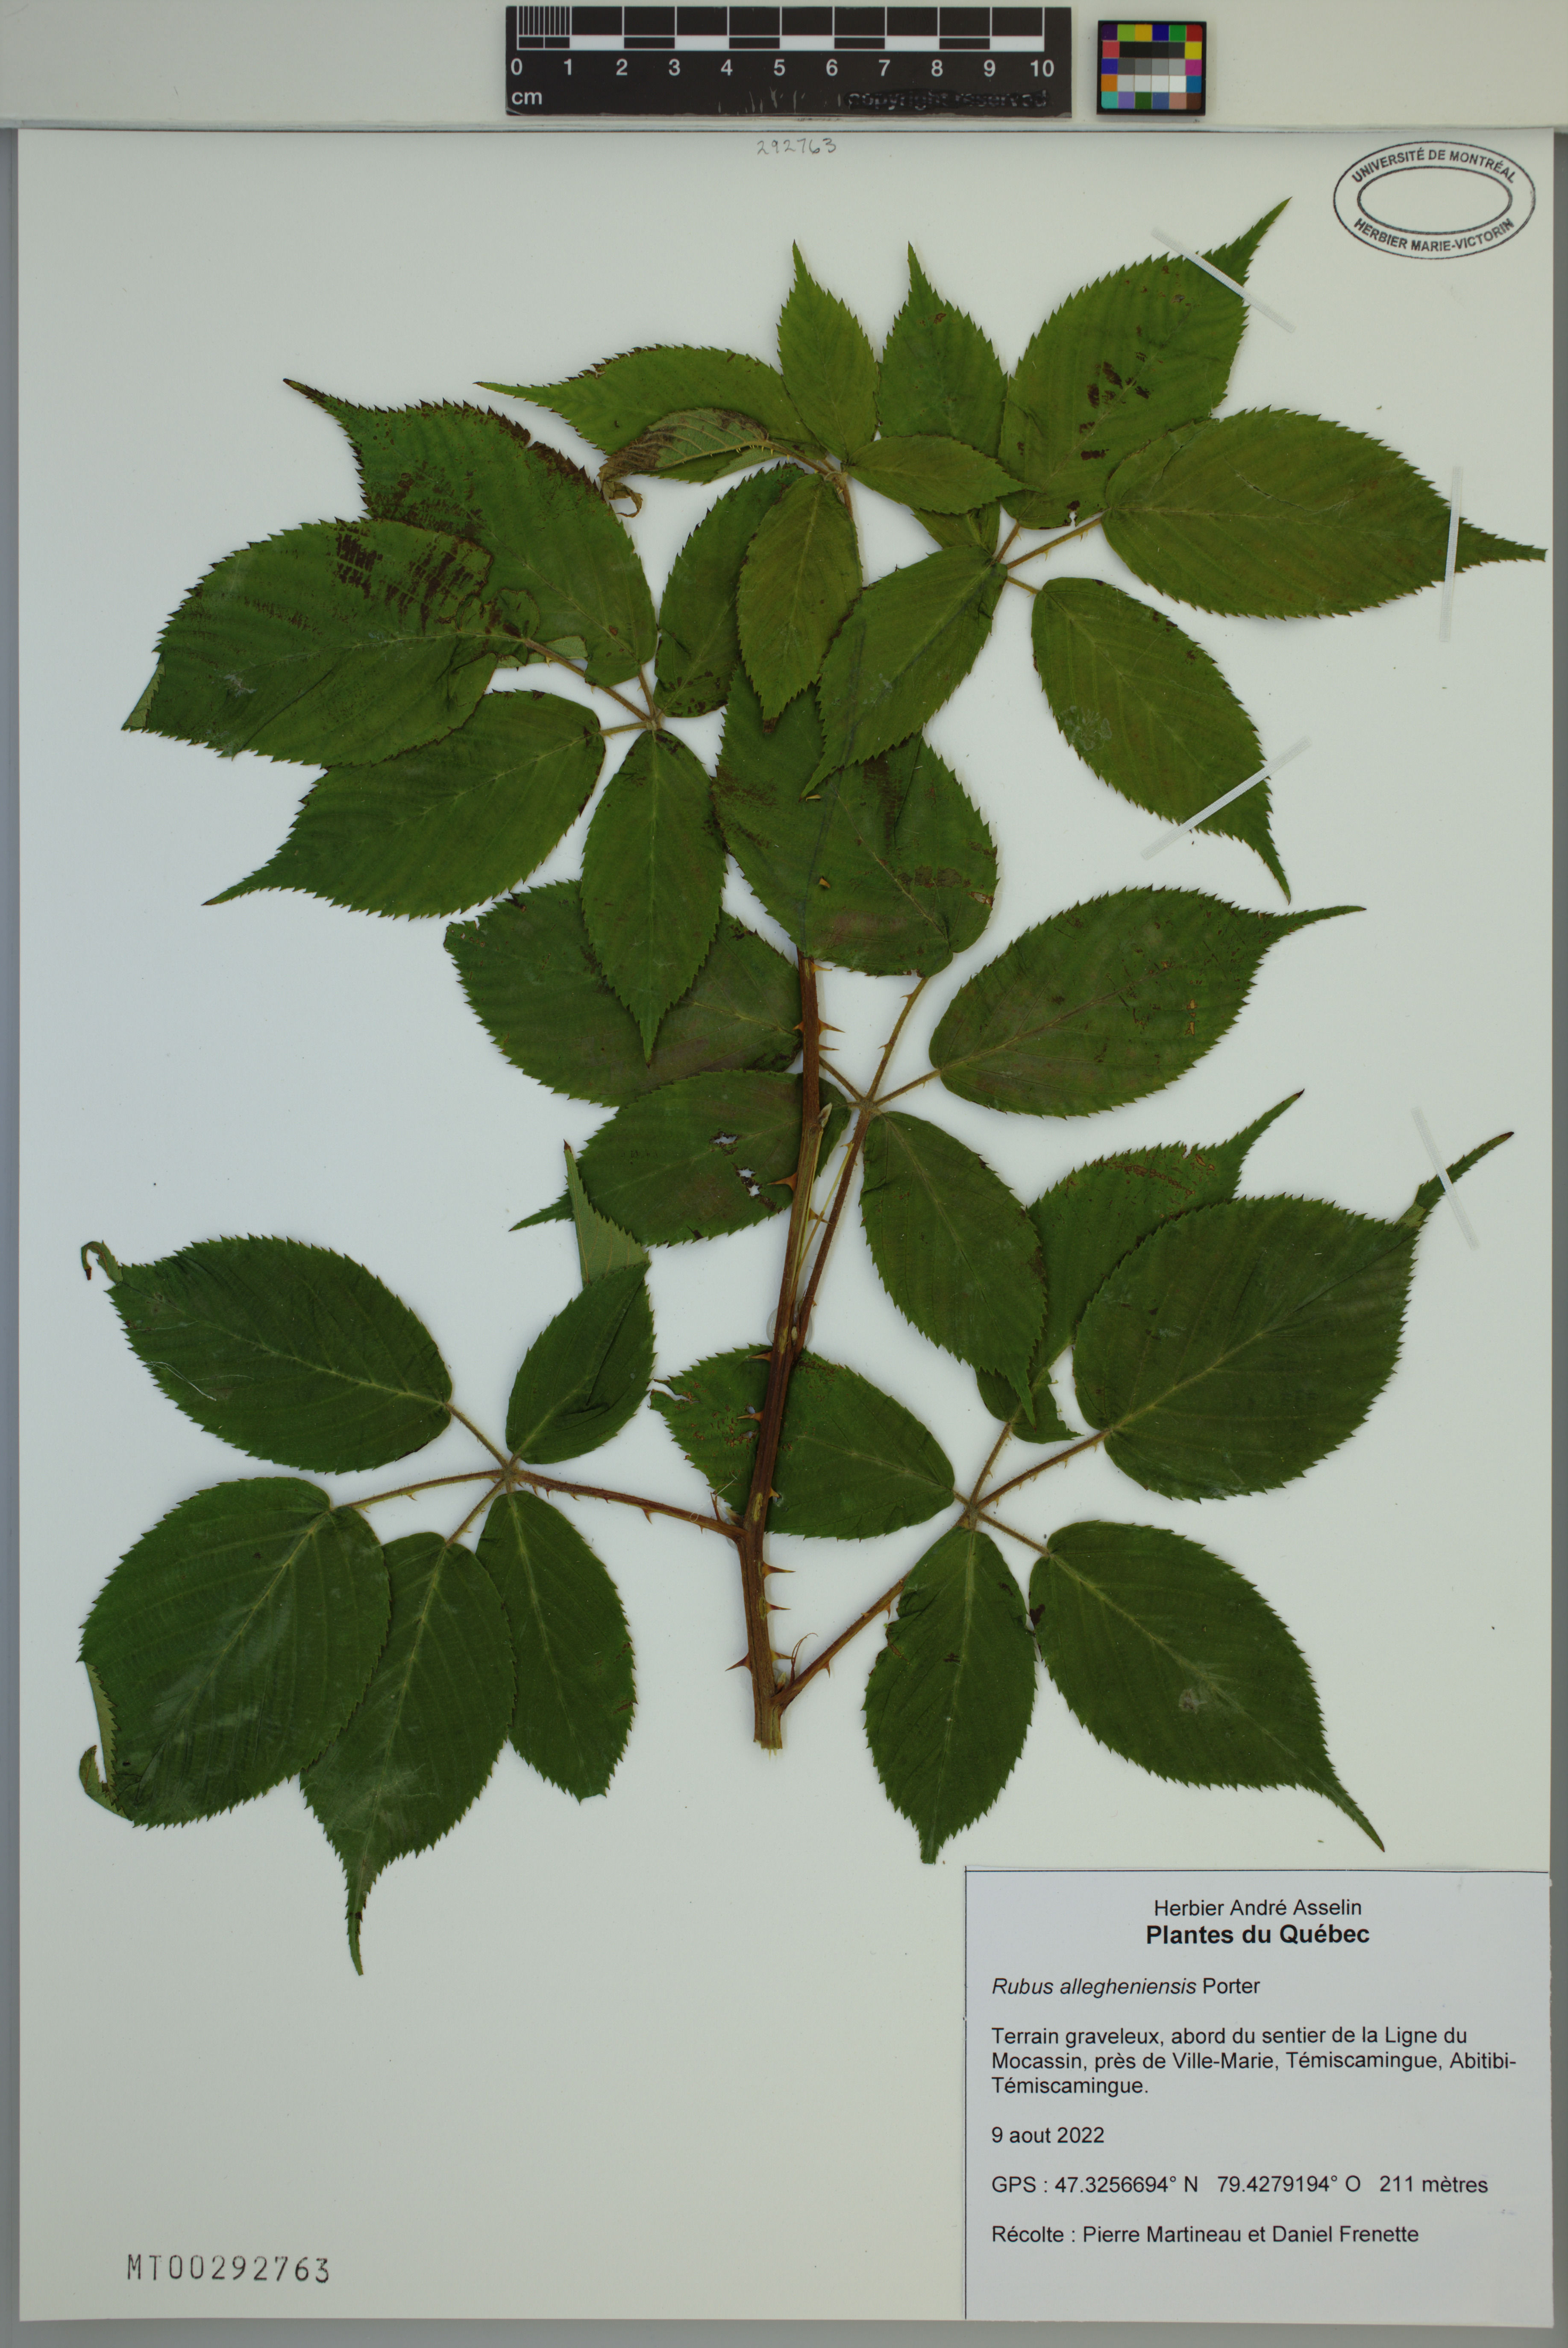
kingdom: Plantae
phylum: Tracheophyta
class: Magnoliopsida
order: Rosales
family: Rosaceae
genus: Rubus
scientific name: Rubus allegheniensis
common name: Allegheny blackberry
